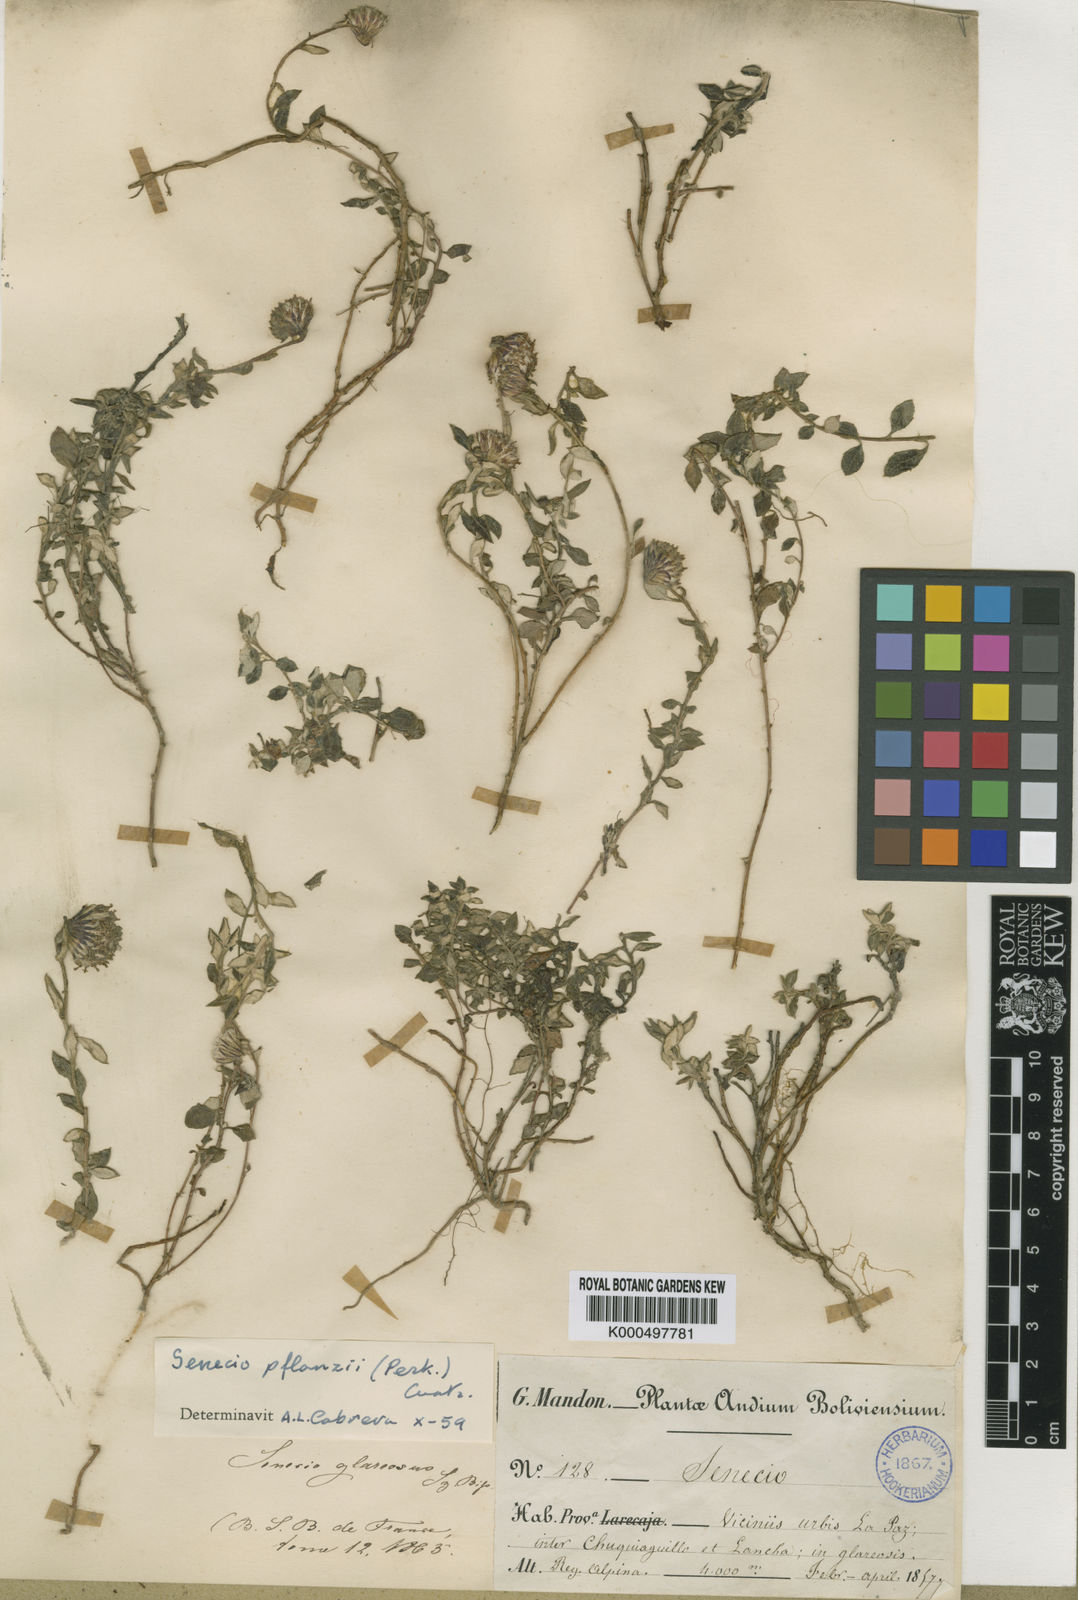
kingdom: Plantae
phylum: Tracheophyta
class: Magnoliopsida
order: Asterales
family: Asteraceae
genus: Senecio
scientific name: Senecio pflanzii
